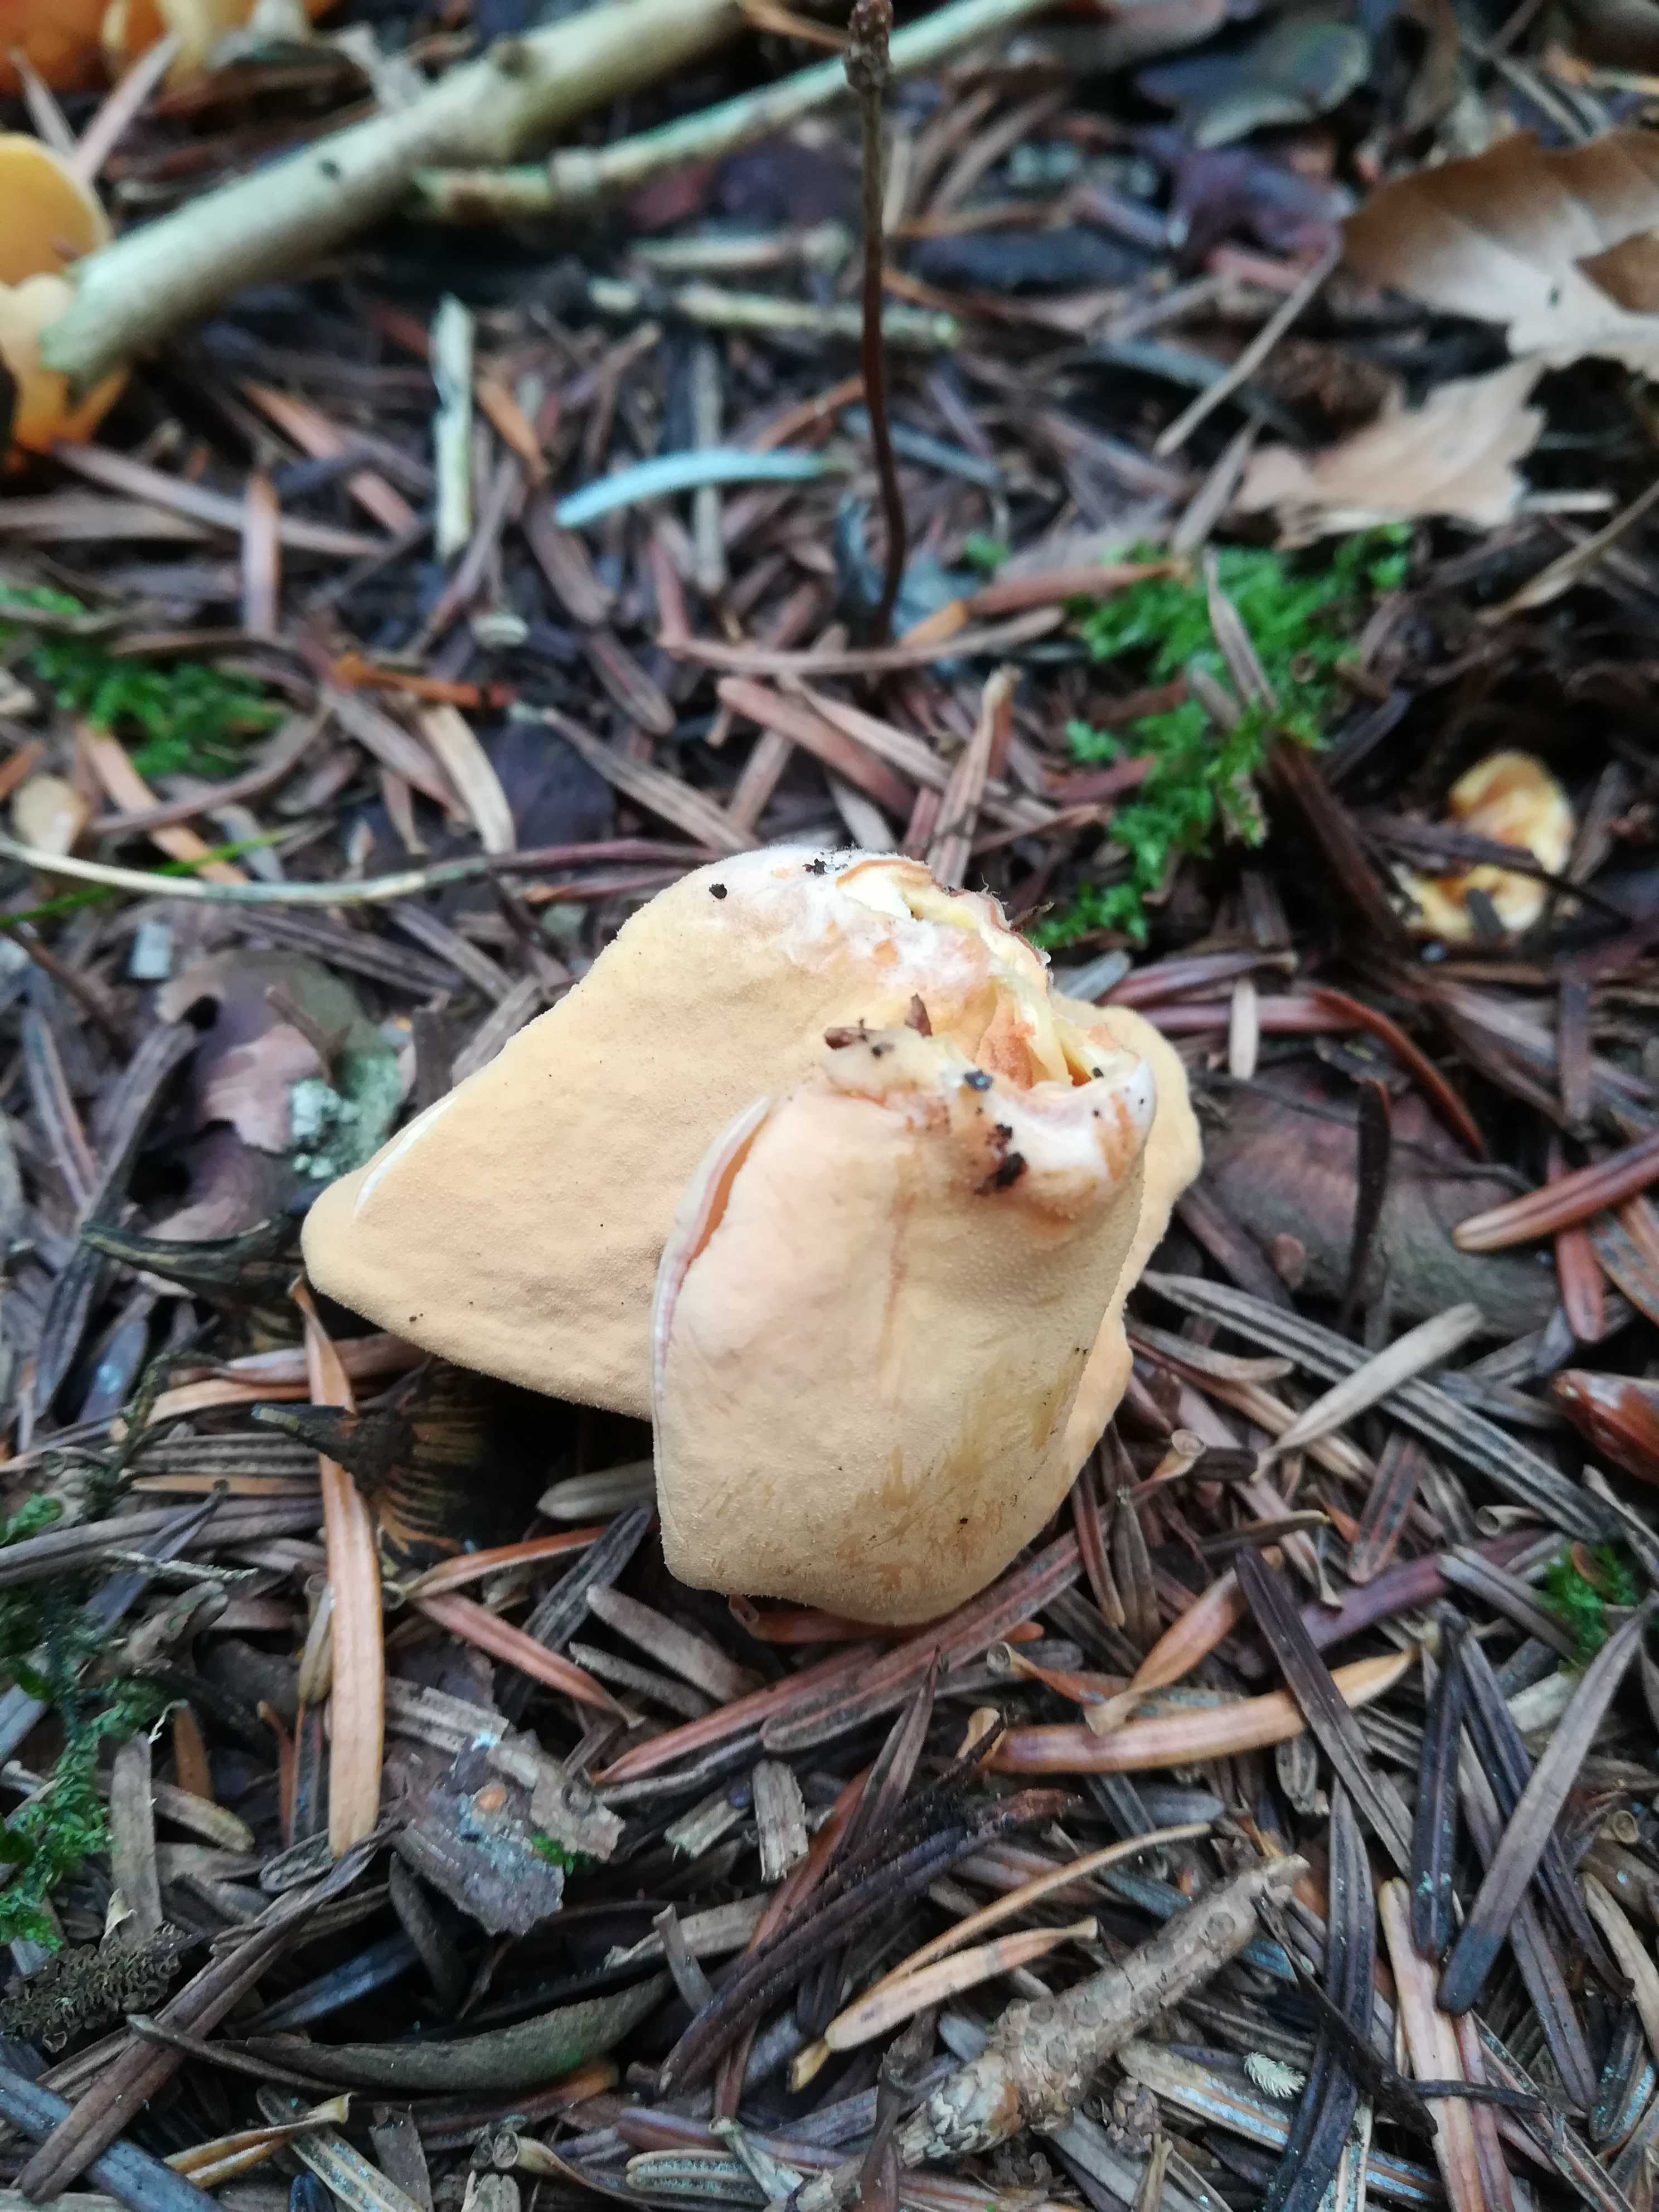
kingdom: Fungi
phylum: Ascomycota
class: Pezizomycetes
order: Pezizales
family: Otideaceae
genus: Otidea
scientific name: Otidea onotica
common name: æsel-ørebæger
